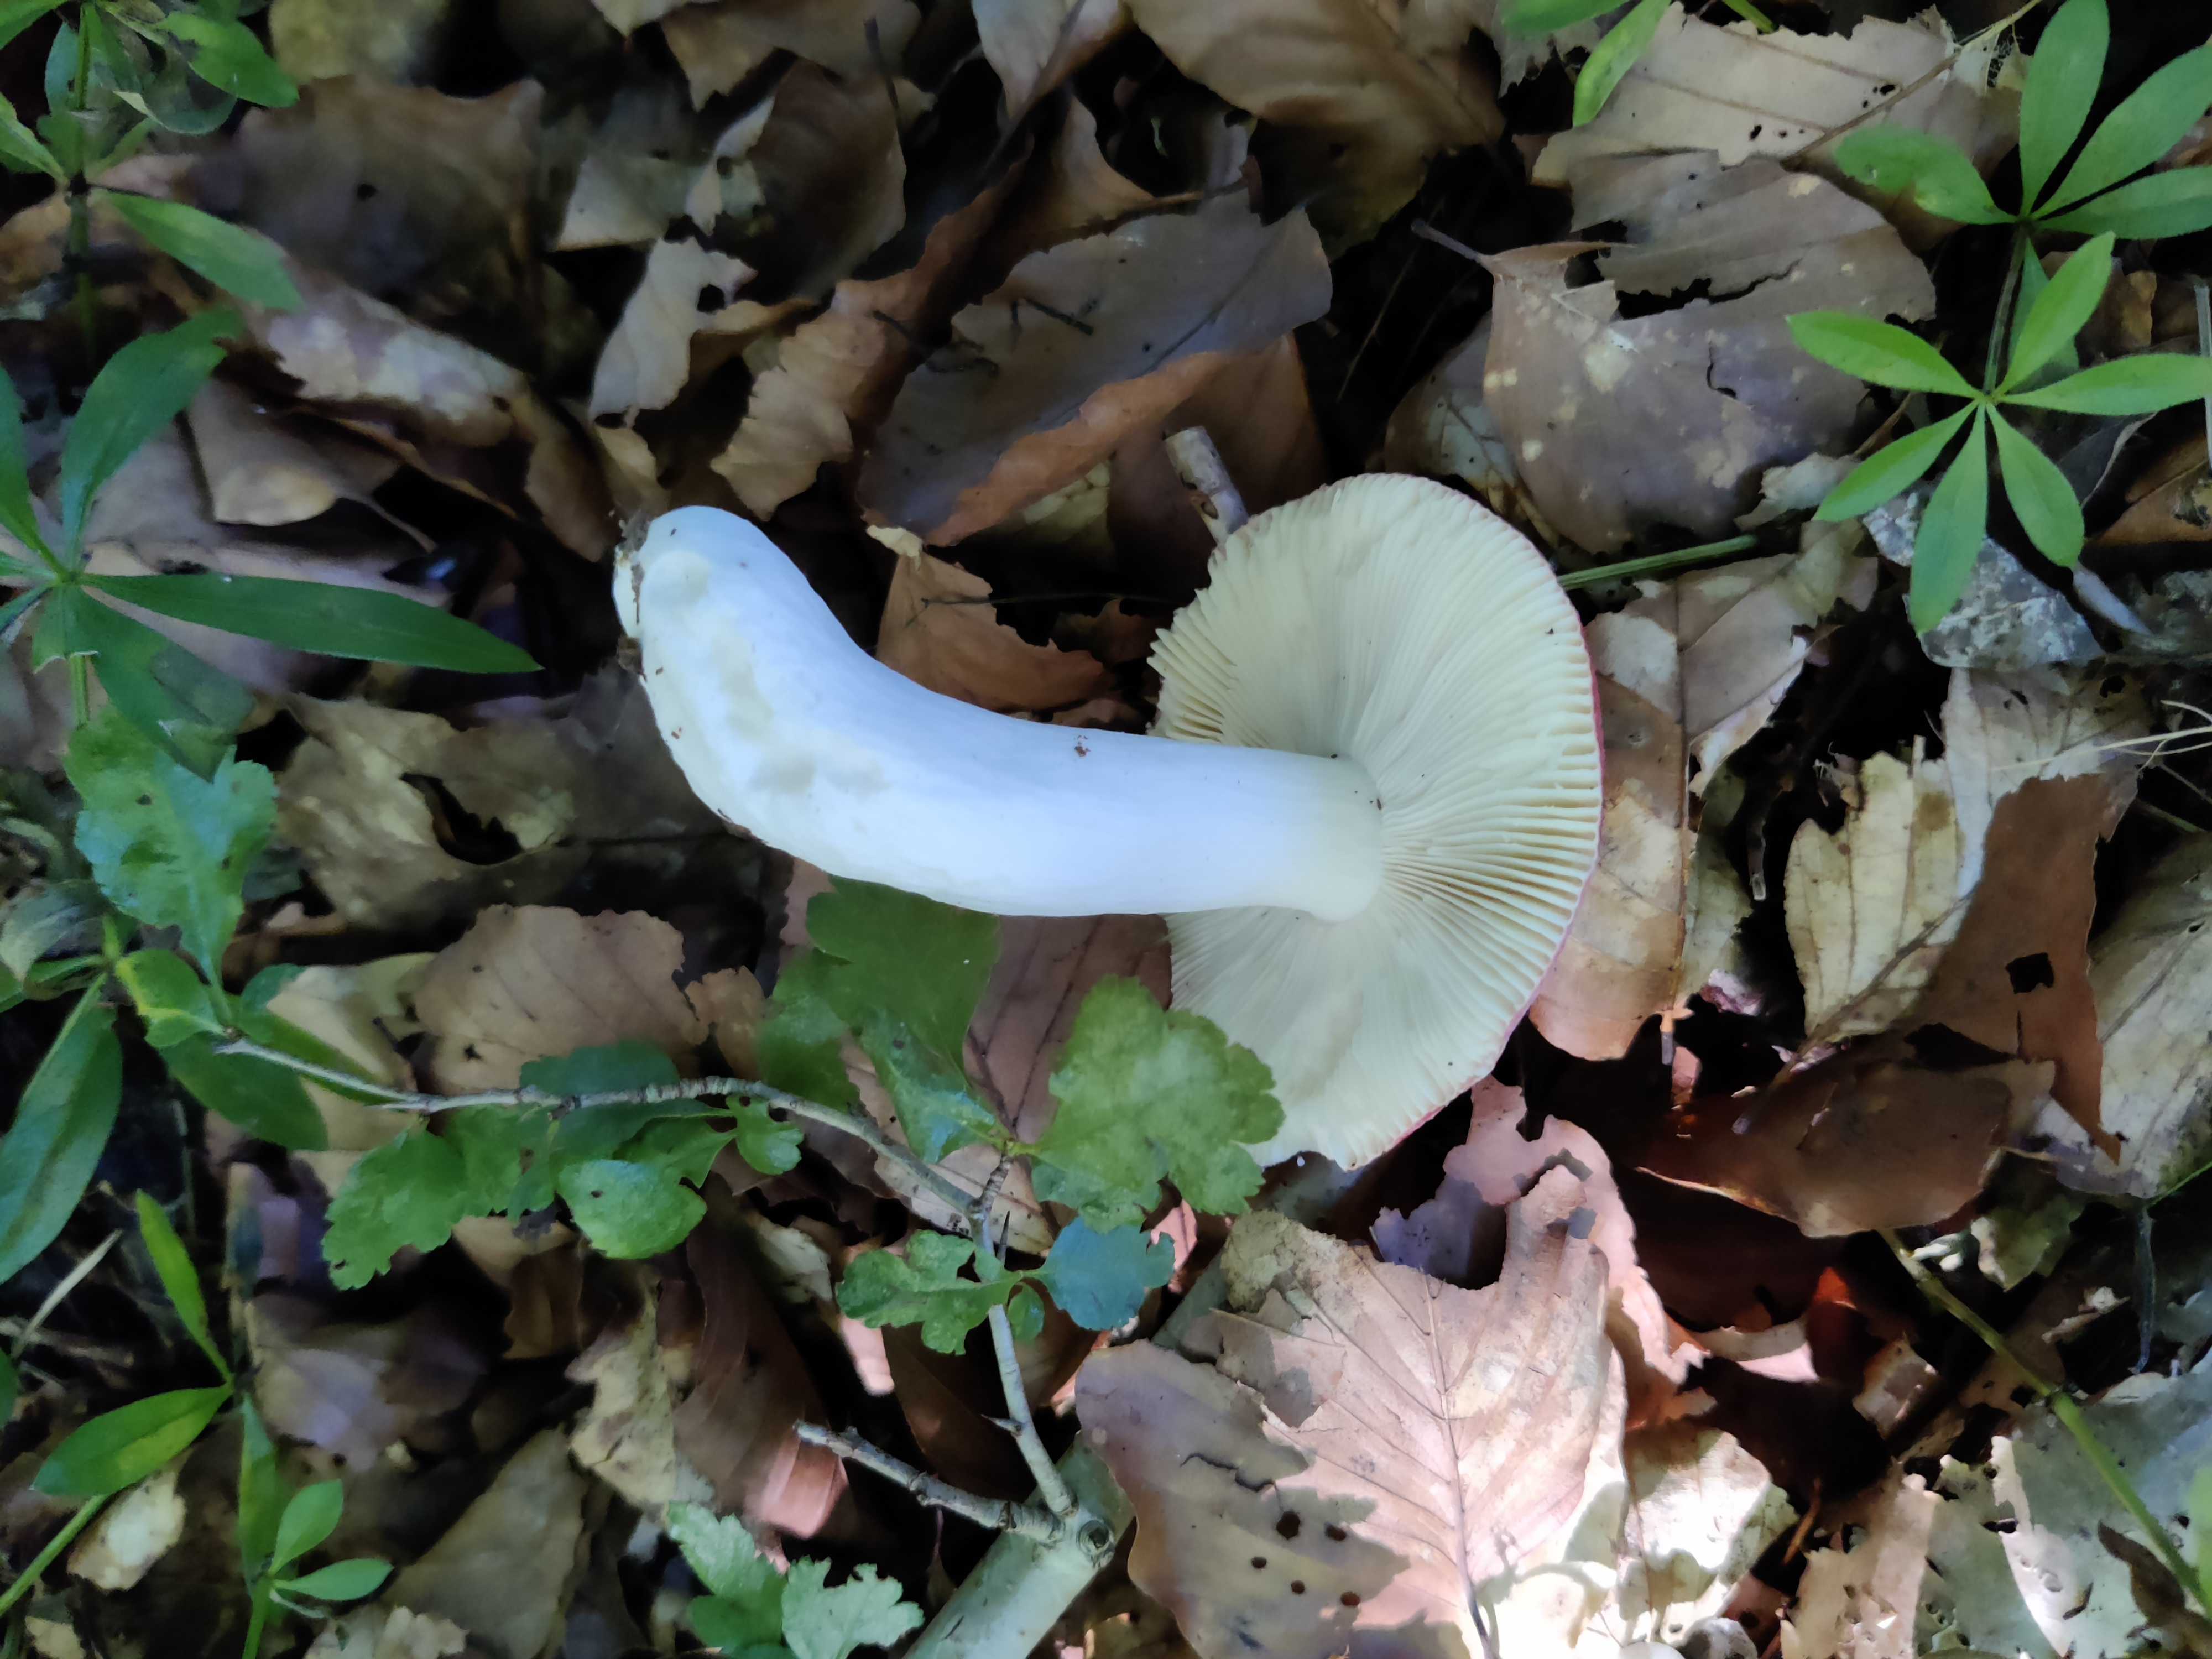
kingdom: Fungi
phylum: Basidiomycota
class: Agaricomycetes
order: Russulales
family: Russulaceae
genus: Russula
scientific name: Russula
